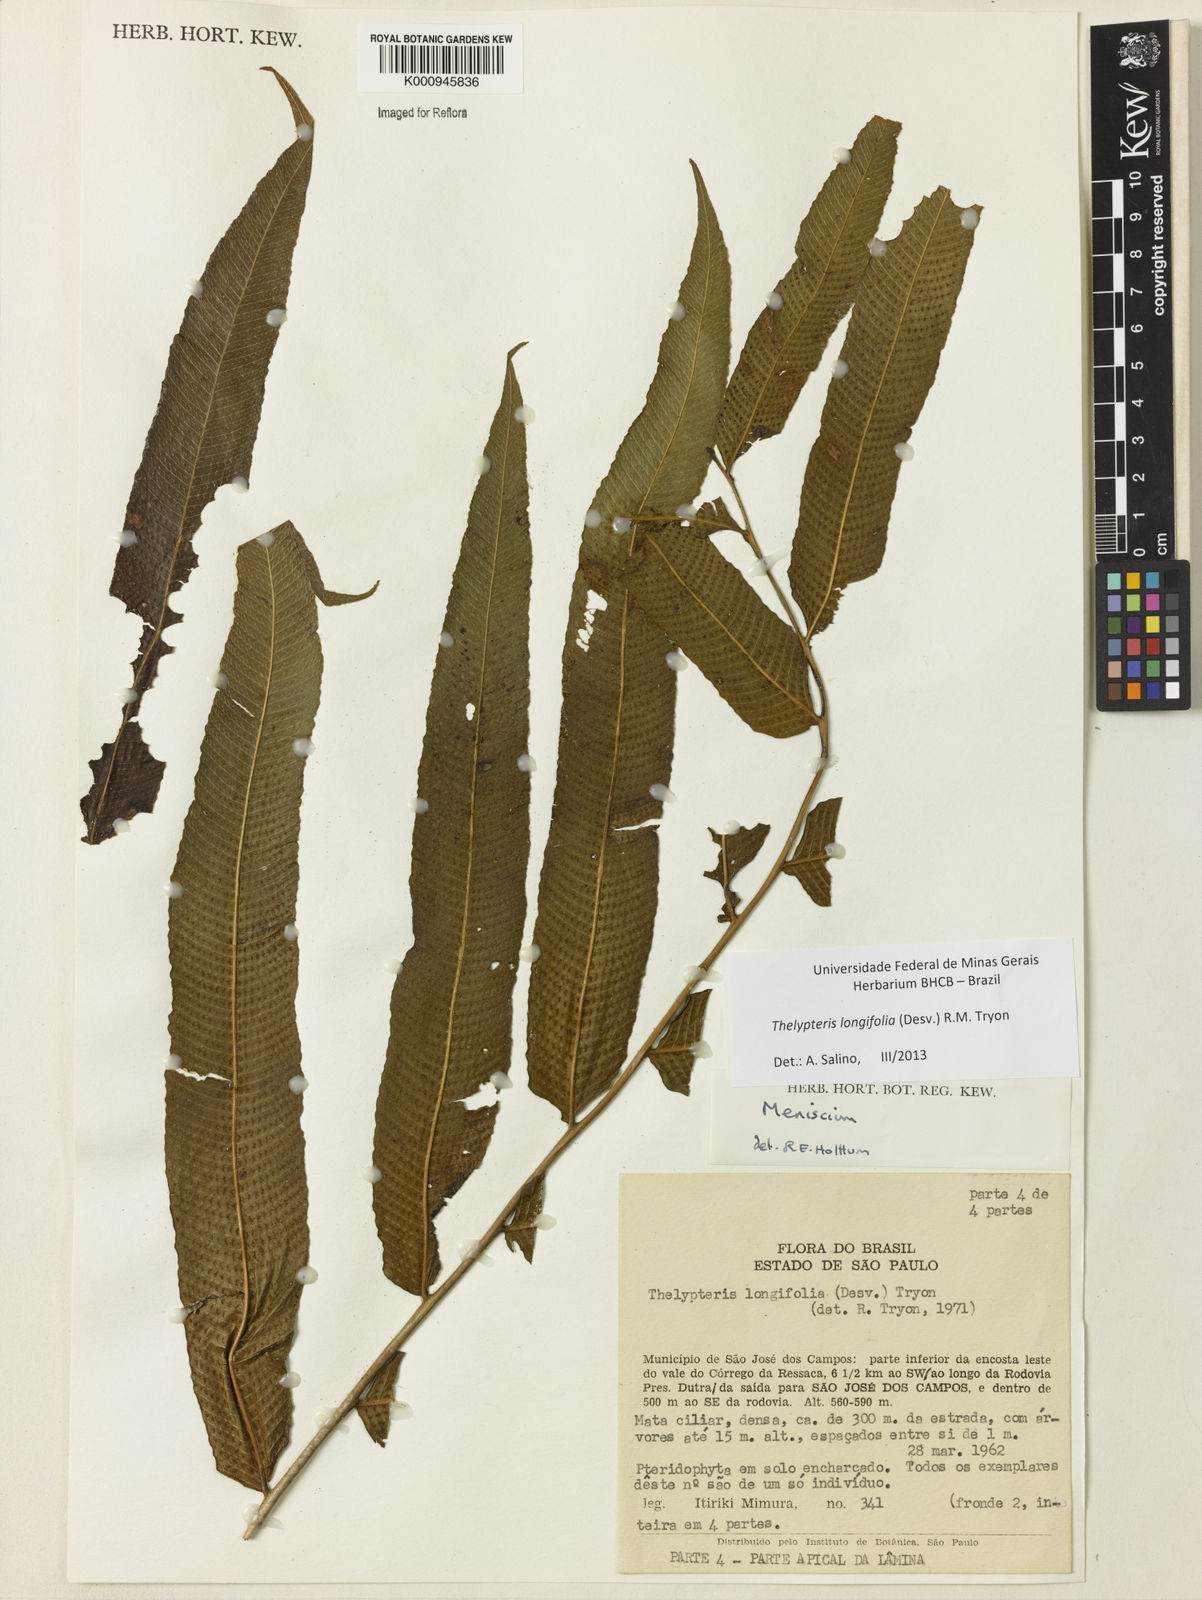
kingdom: Plantae
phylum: Tracheophyta
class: Polypodiopsida
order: Polypodiales
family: Thelypteridaceae
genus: Meniscium
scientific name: Meniscium longifolium
